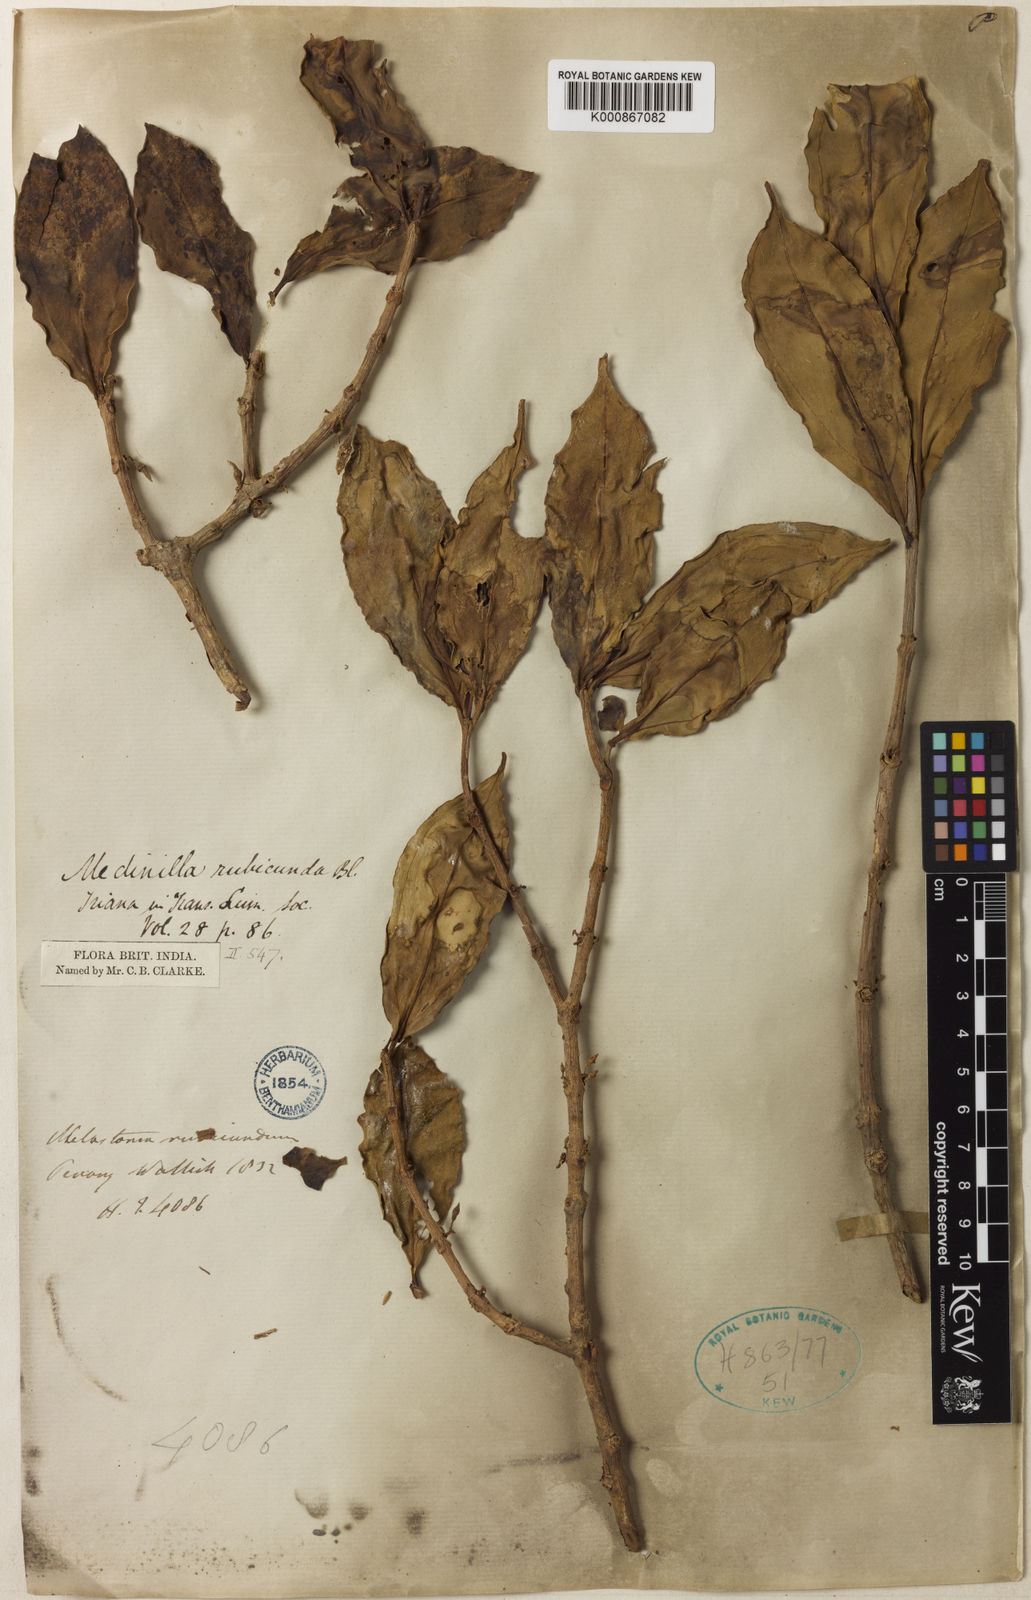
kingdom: Plantae
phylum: Tracheophyta
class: Magnoliopsida
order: Myrtales
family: Melastomataceae
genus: Medinilla
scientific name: Medinilla rubicunda
